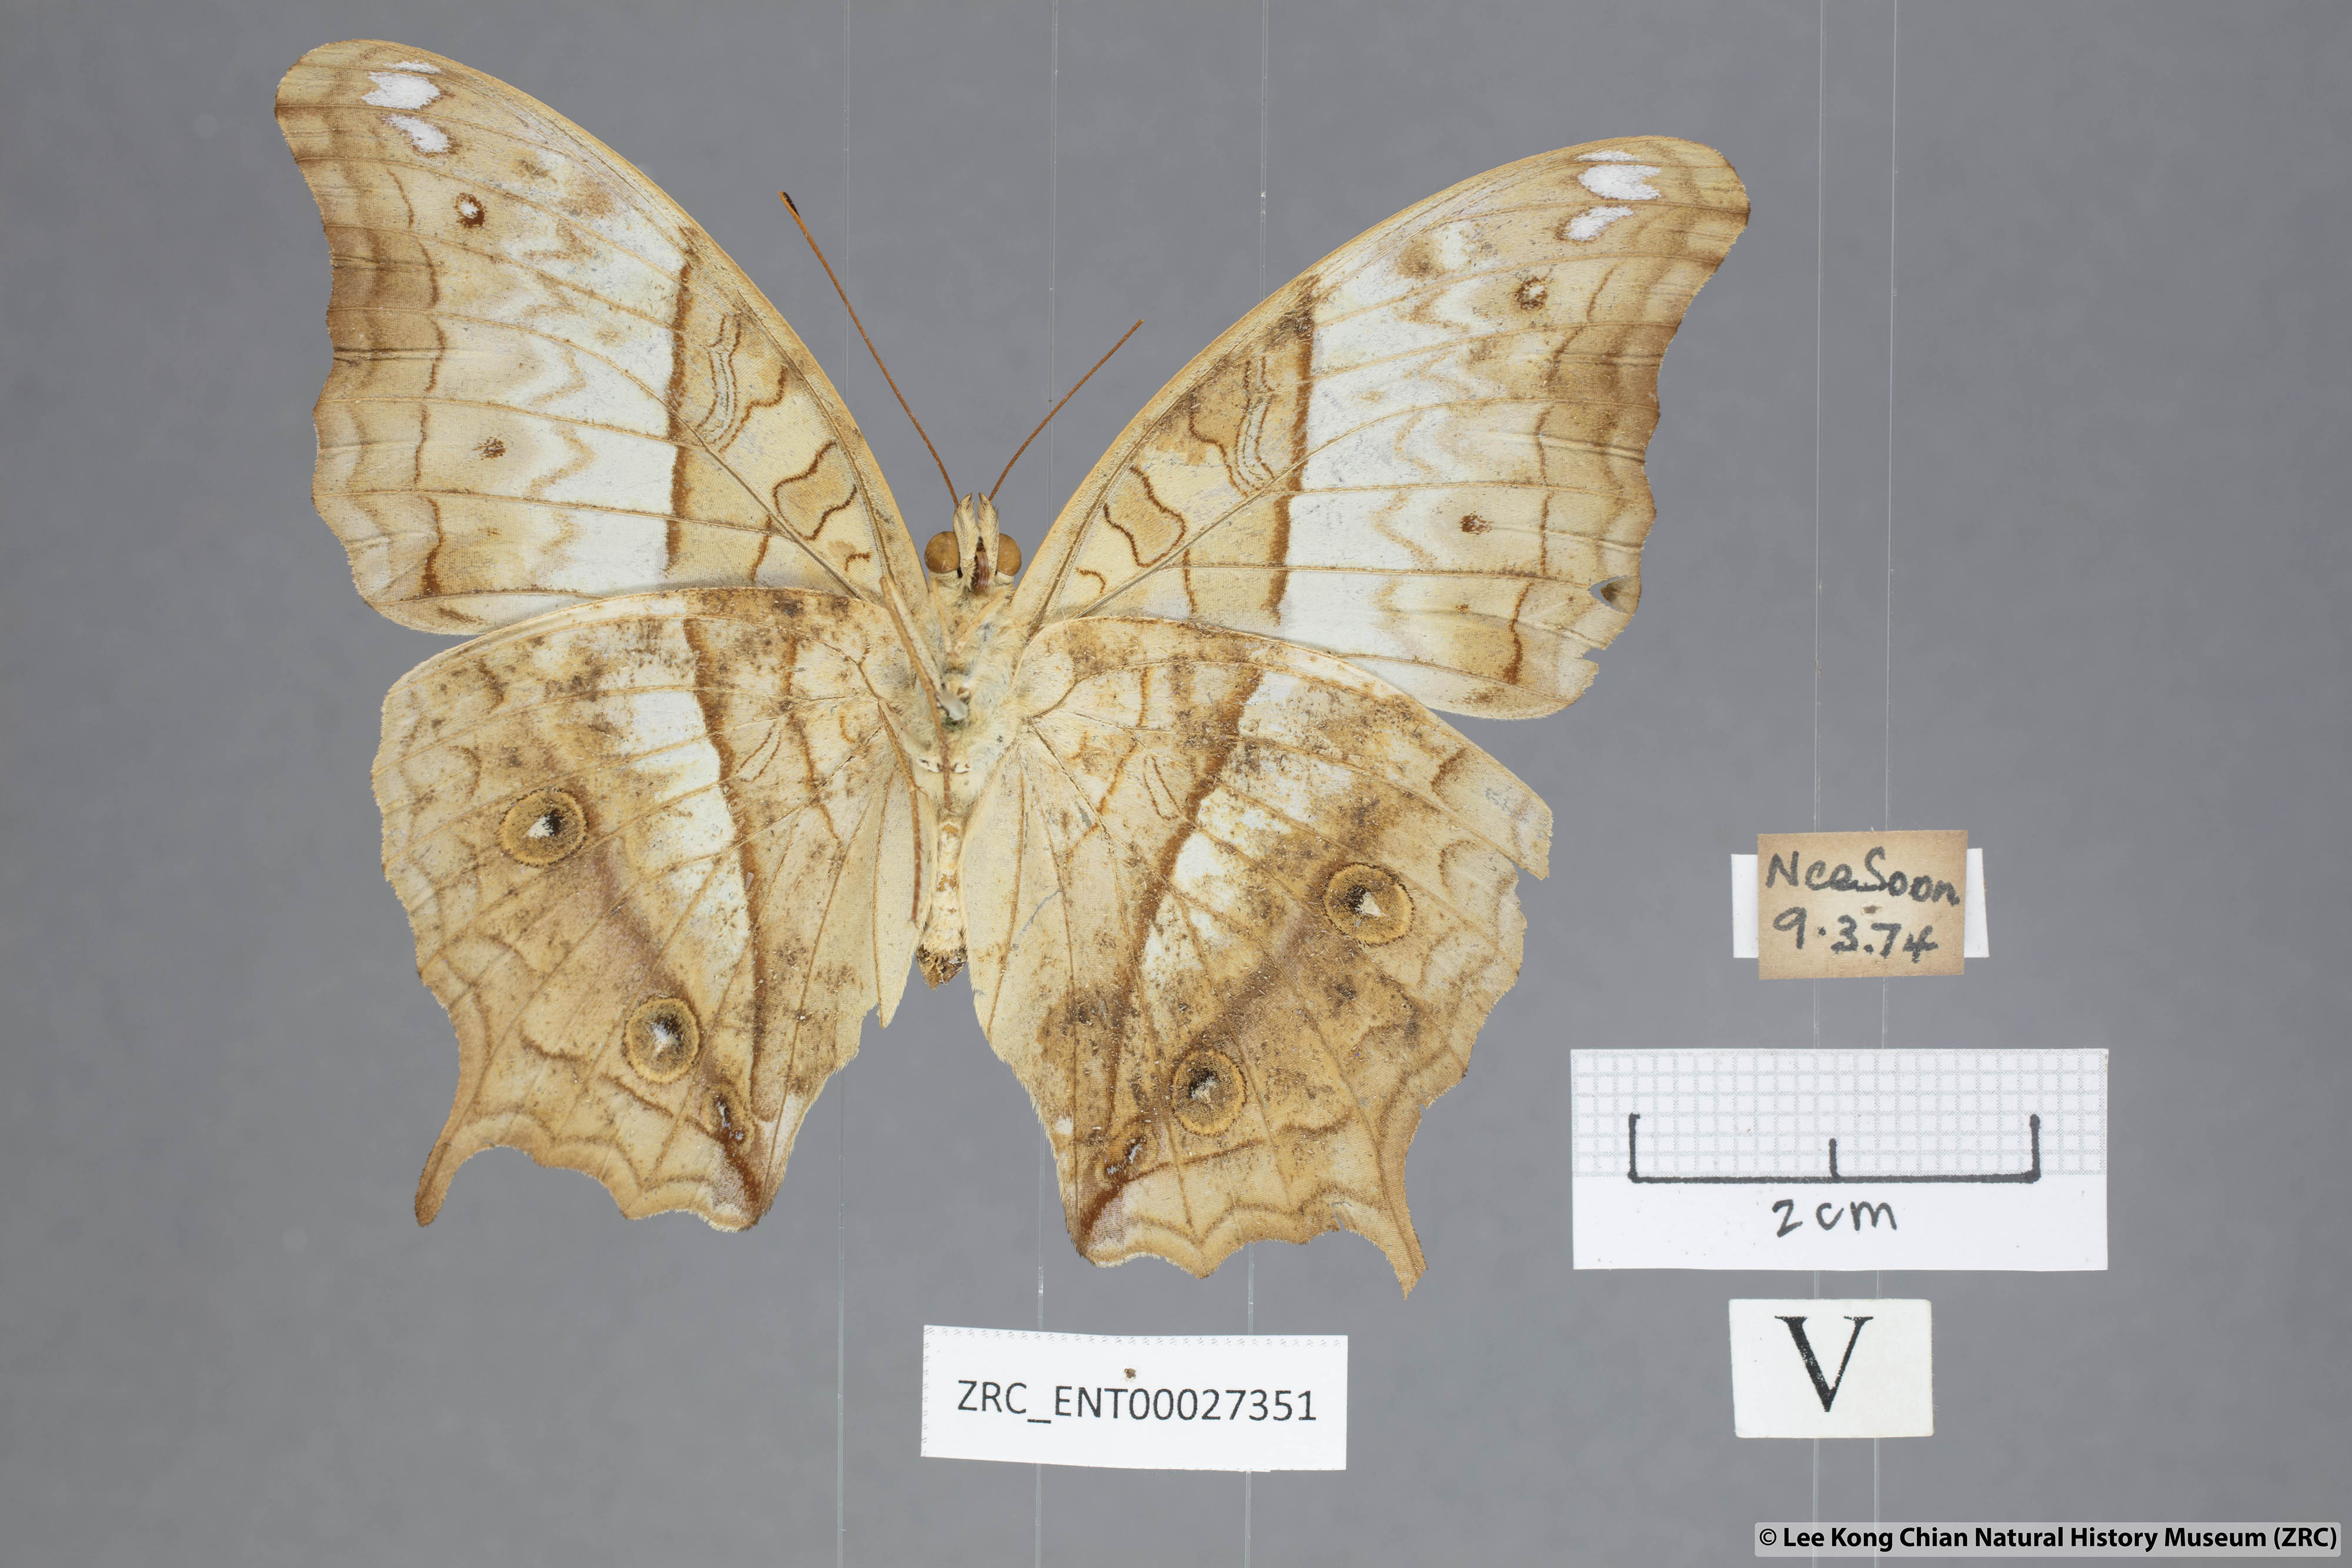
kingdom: Animalia
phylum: Arthropoda
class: Insecta
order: Lepidoptera
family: Nymphalidae
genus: Vindula
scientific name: Vindula deione
